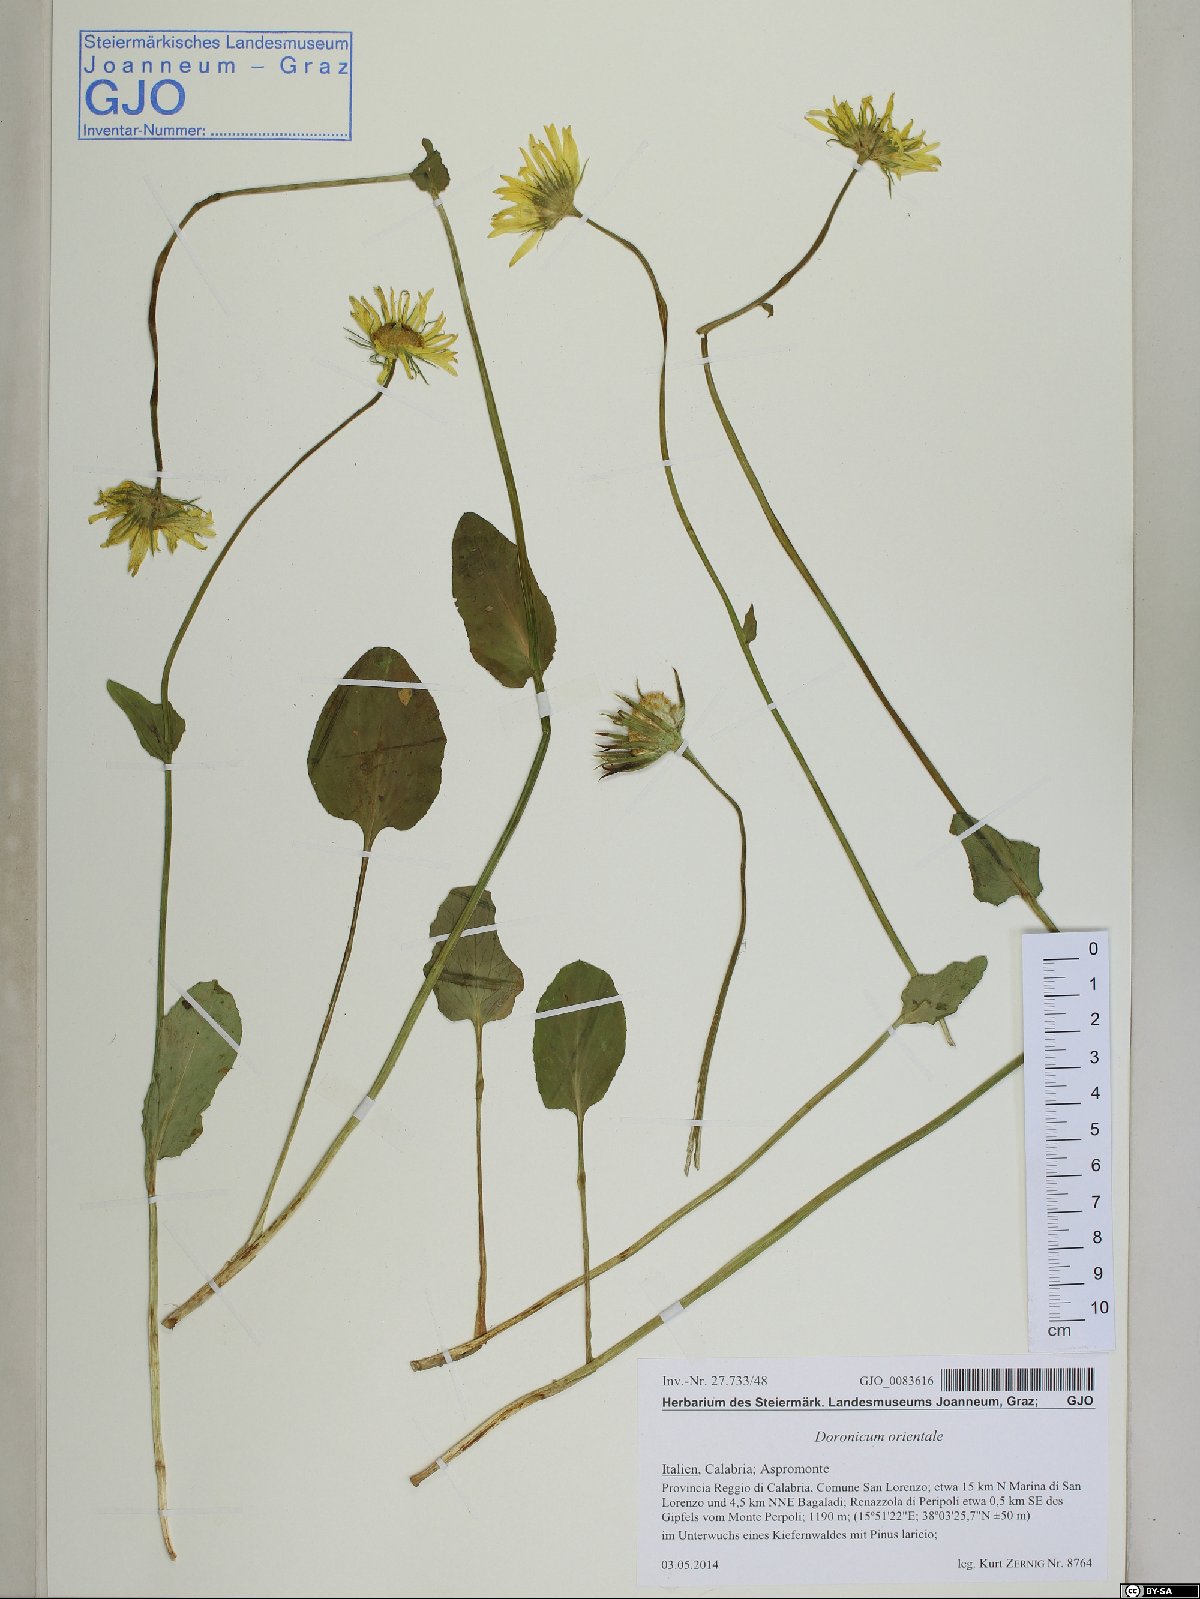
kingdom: Plantae
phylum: Tracheophyta
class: Magnoliopsida
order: Asterales
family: Asteraceae
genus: Doronicum
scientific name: Doronicum orientale
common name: Oriental leopard's-bane
